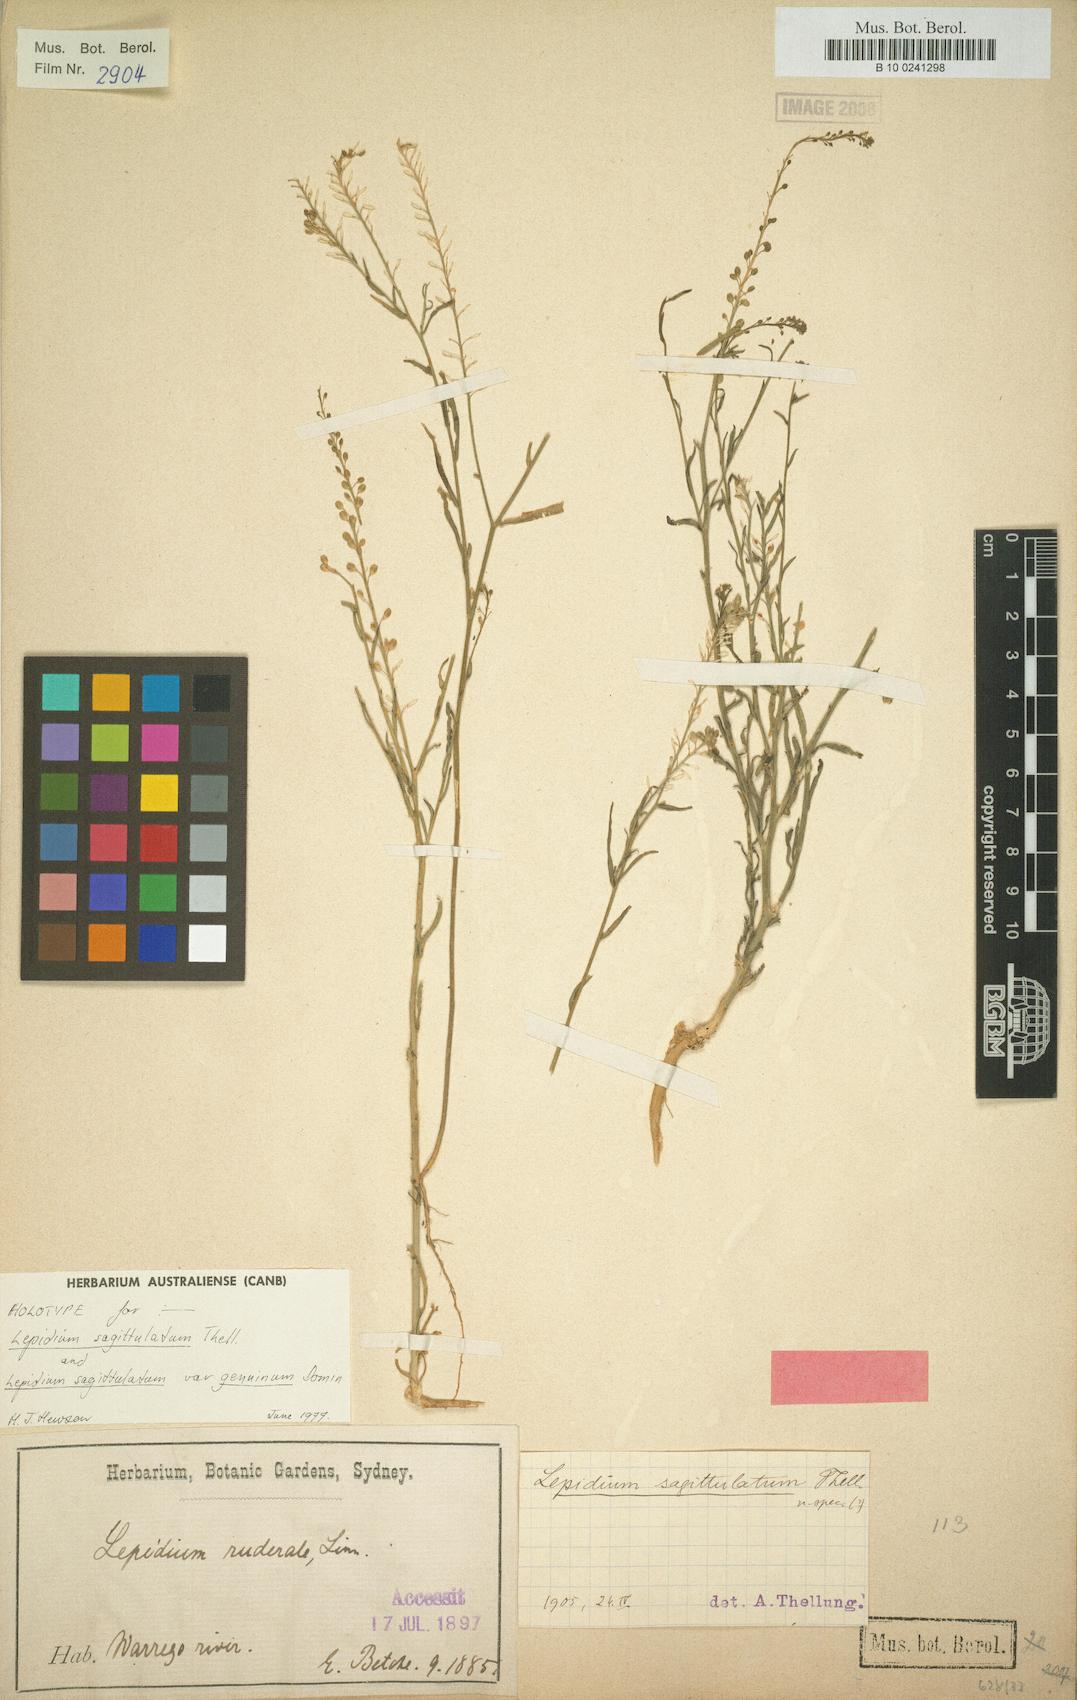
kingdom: Plantae
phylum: Tracheophyta
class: Magnoliopsida
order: Brassicales
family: Brassicaceae
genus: Lepidium
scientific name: Lepidium sagittulatum
